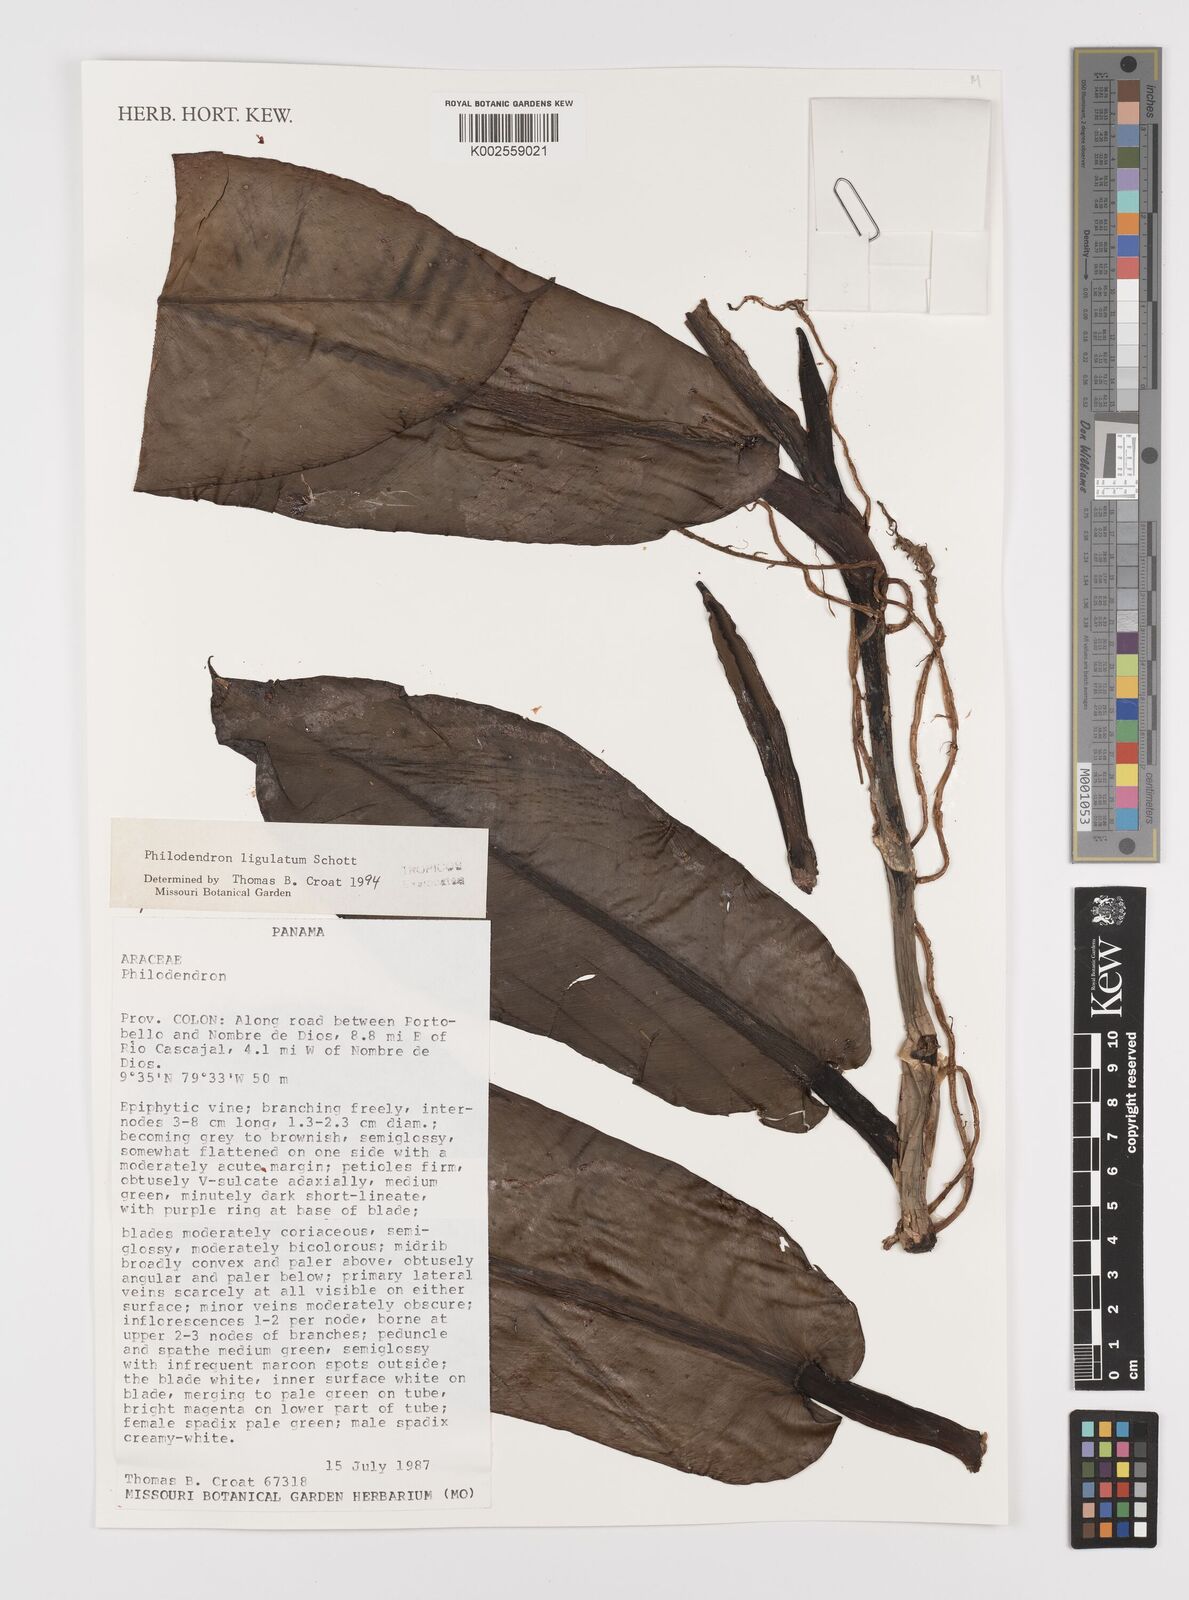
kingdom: Plantae
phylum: Tracheophyta
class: Liliopsida
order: Alismatales
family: Araceae
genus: Philodendron
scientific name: Philodendron ligulatum
